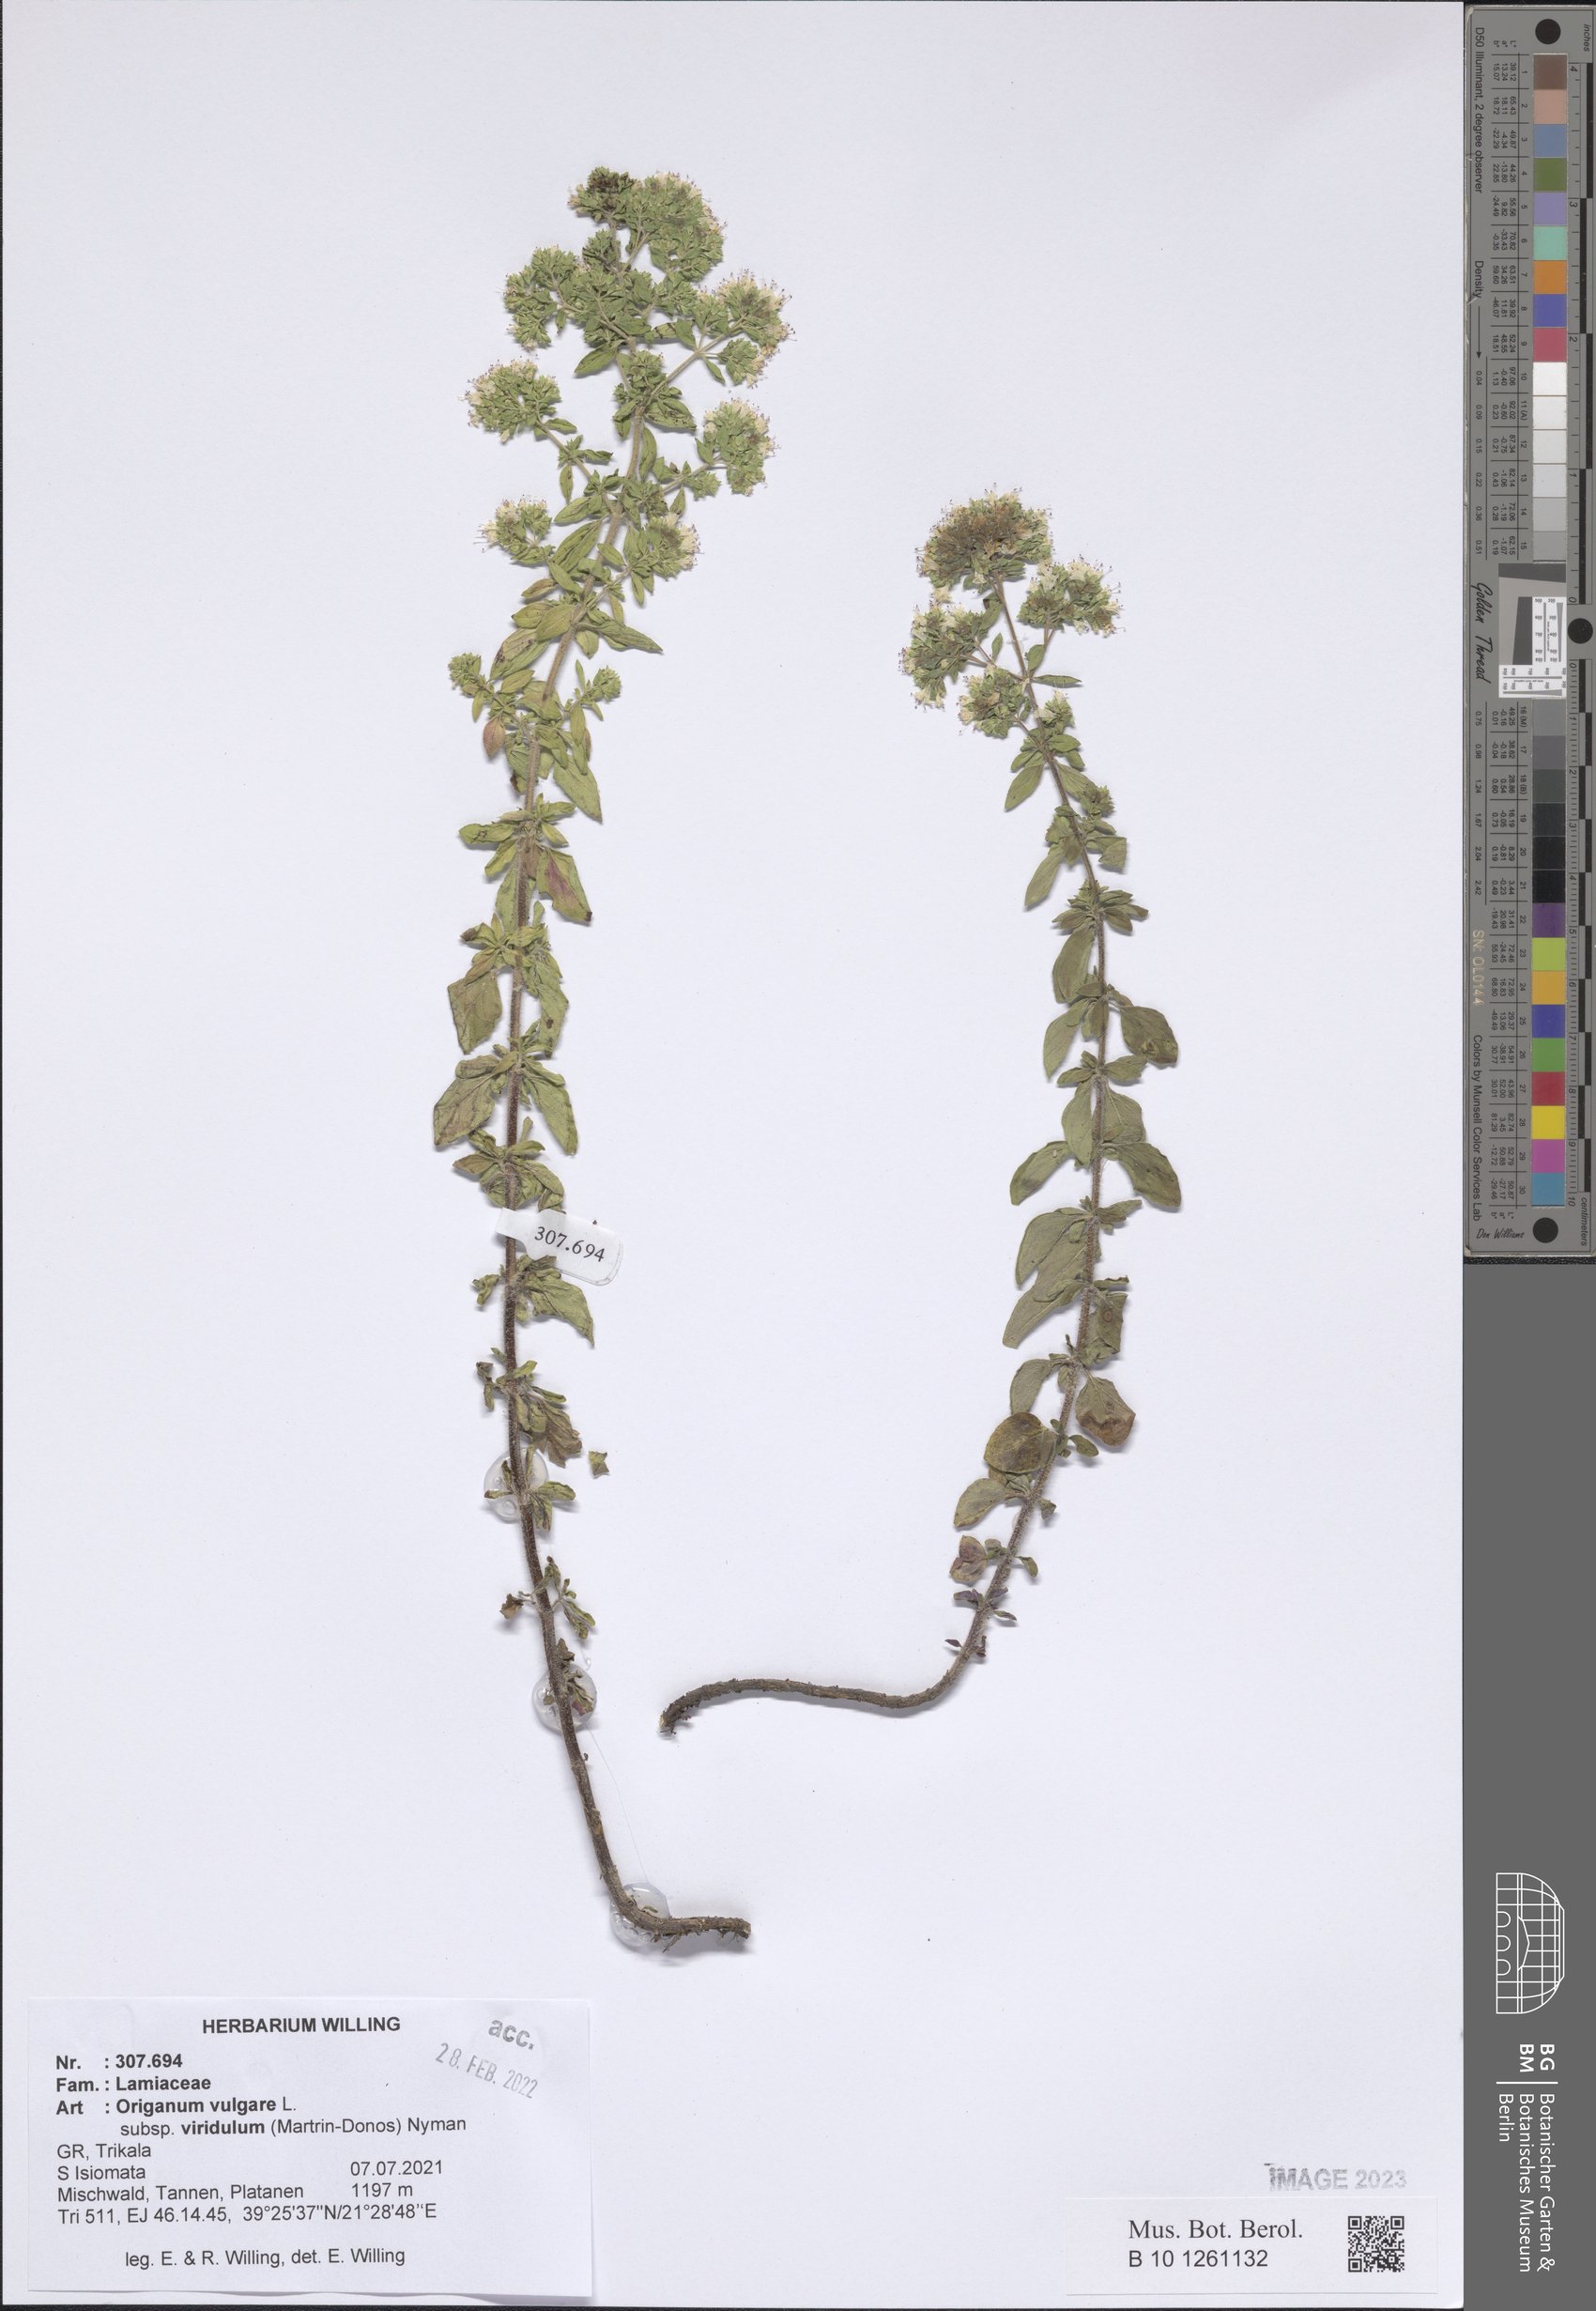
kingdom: Plantae
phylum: Tracheophyta
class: Magnoliopsida
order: Lamiales
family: Lamiaceae
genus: Origanum
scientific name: Origanum vulgare
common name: Wild marjoram
